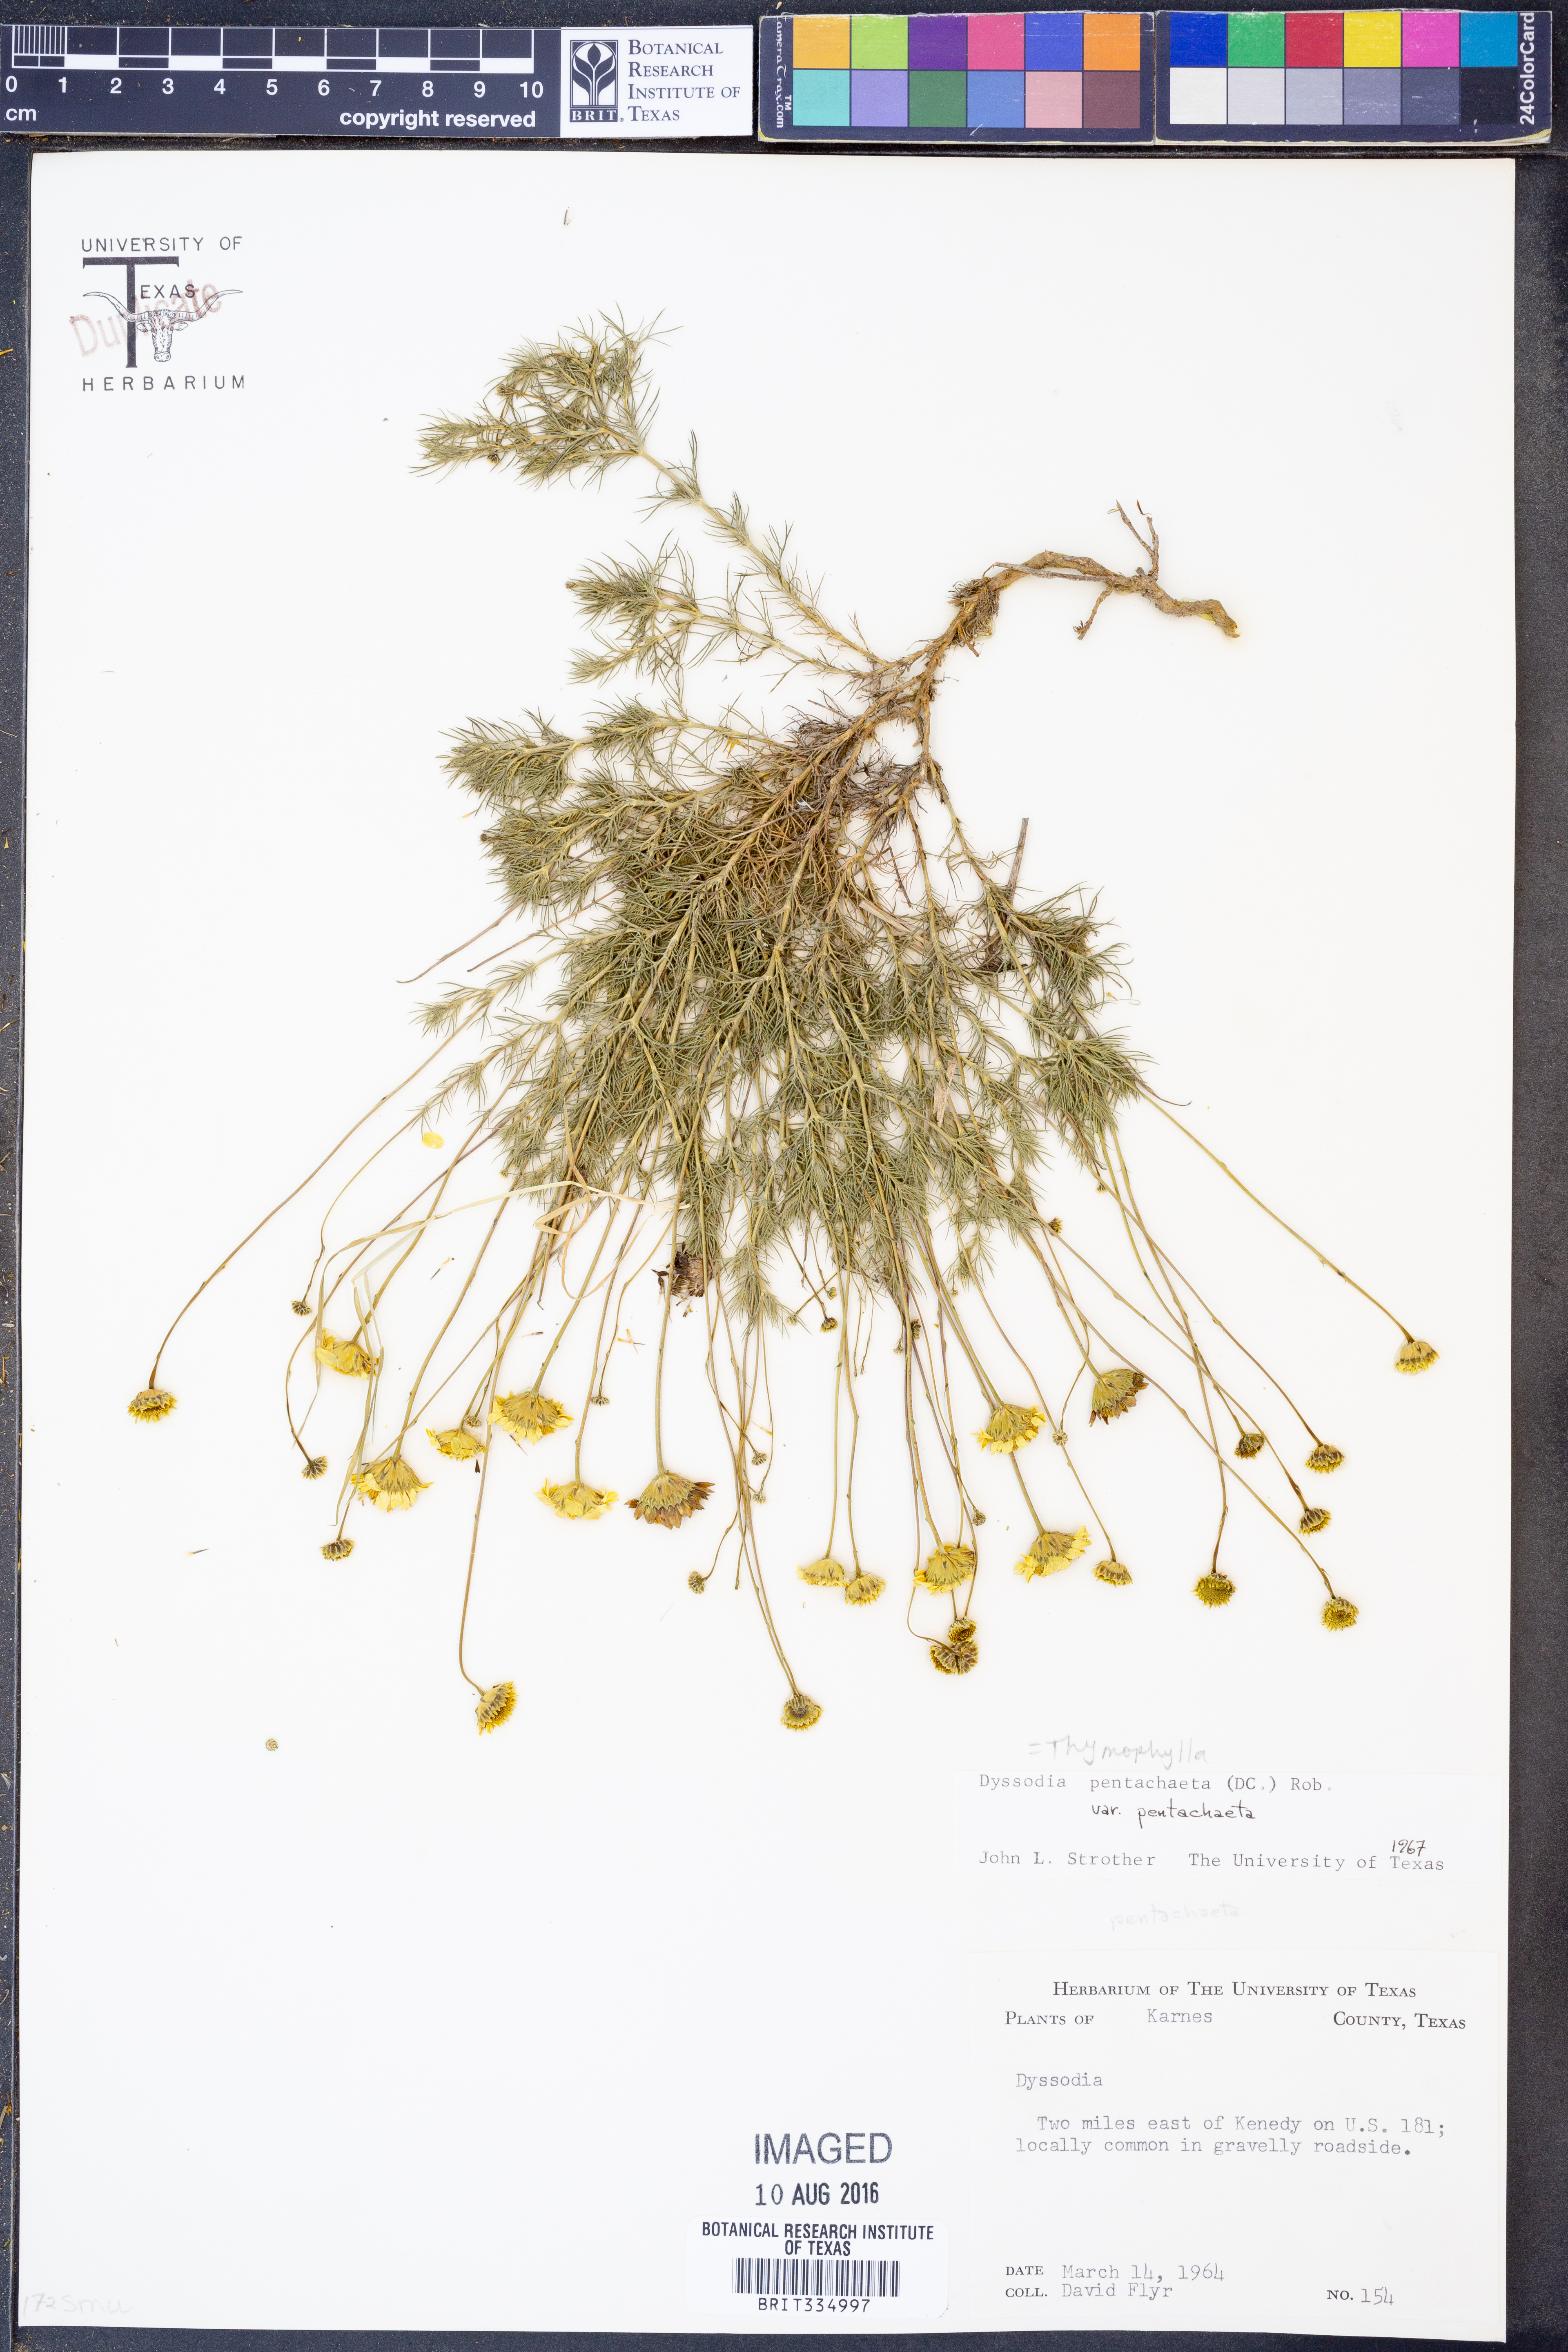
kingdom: Plantae
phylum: Tracheophyta
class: Magnoliopsida
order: Asterales
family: Asteraceae
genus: Thymophylla
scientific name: Thymophylla pentachaeta
